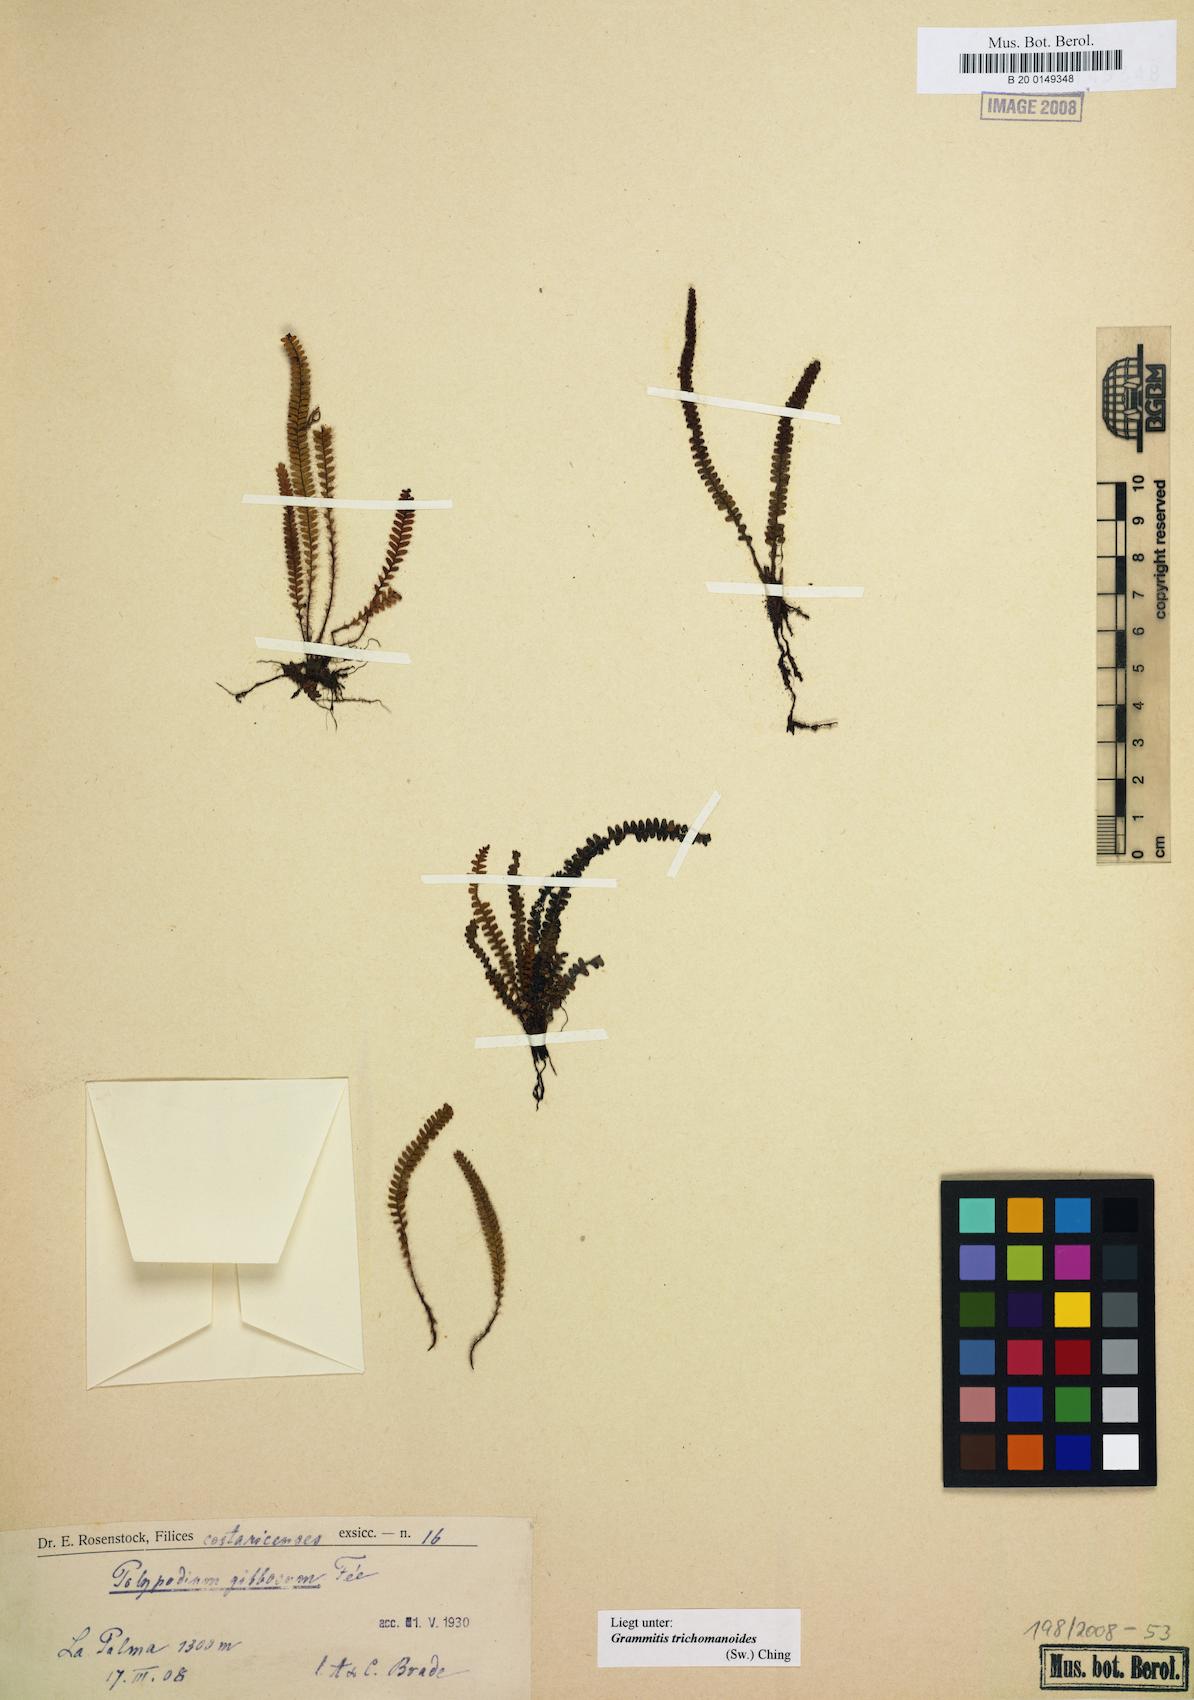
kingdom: Plantae
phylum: Tracheophyta
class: Polypodiopsida
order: Polypodiales
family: Polypodiaceae
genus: Moranopteris
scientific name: Moranopteris taenifolia
